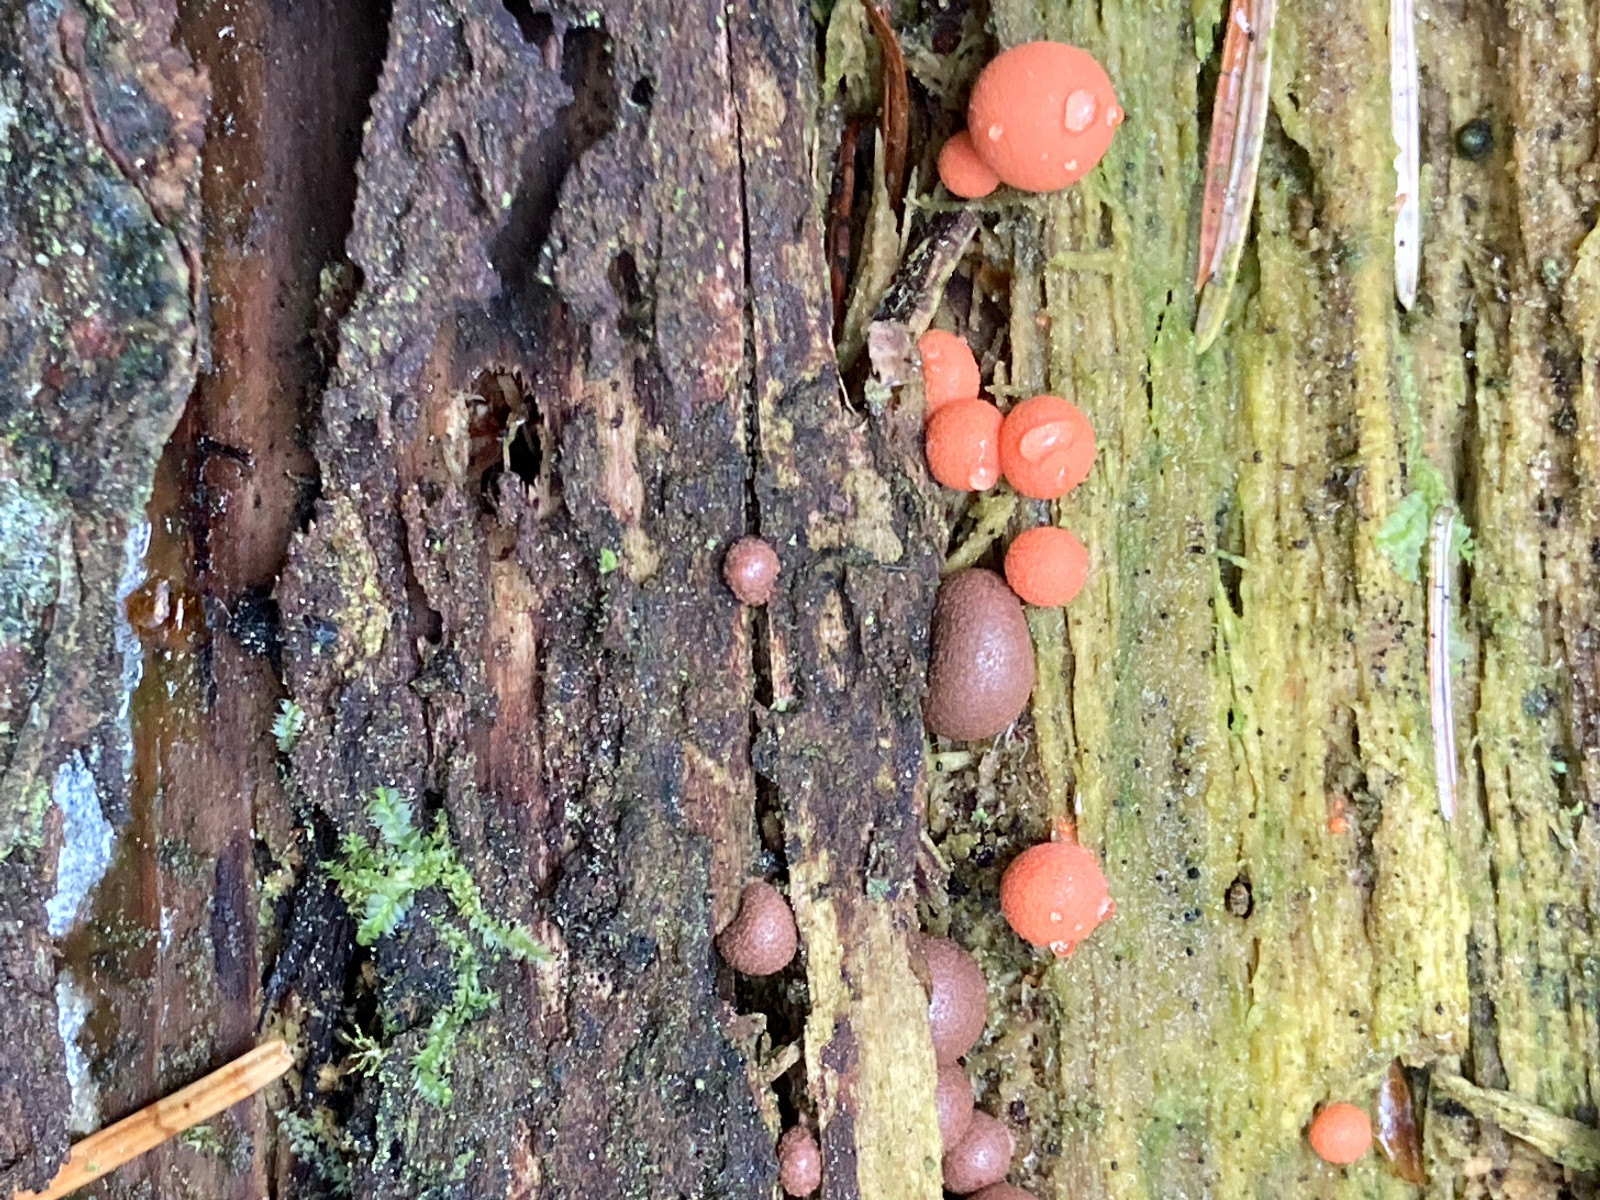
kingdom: Protozoa
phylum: Mycetozoa
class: Myxomycetes
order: Cribrariales
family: Tubiferaceae
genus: Lycogala
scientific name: Lycogala epidendrum
